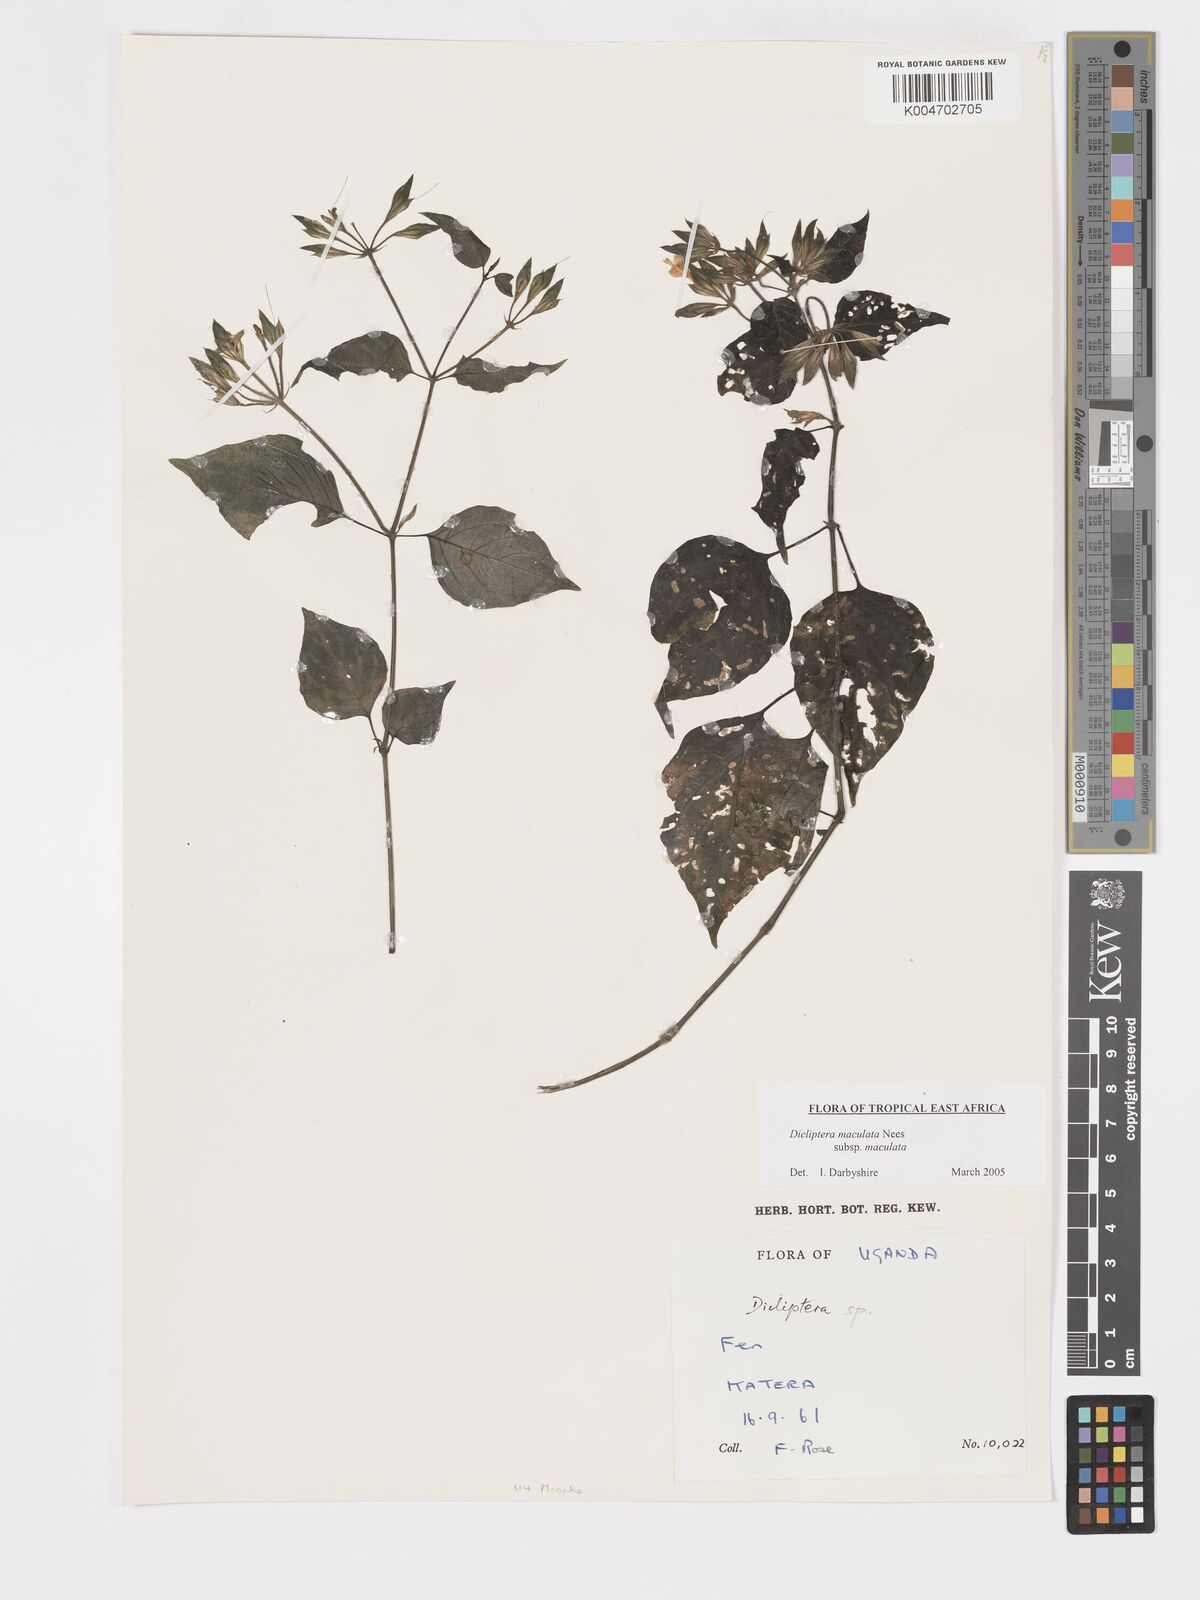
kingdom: Plantae
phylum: Tracheophyta
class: Magnoliopsida
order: Lamiales
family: Acanthaceae
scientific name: Acanthaceae
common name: Acanthaceae
